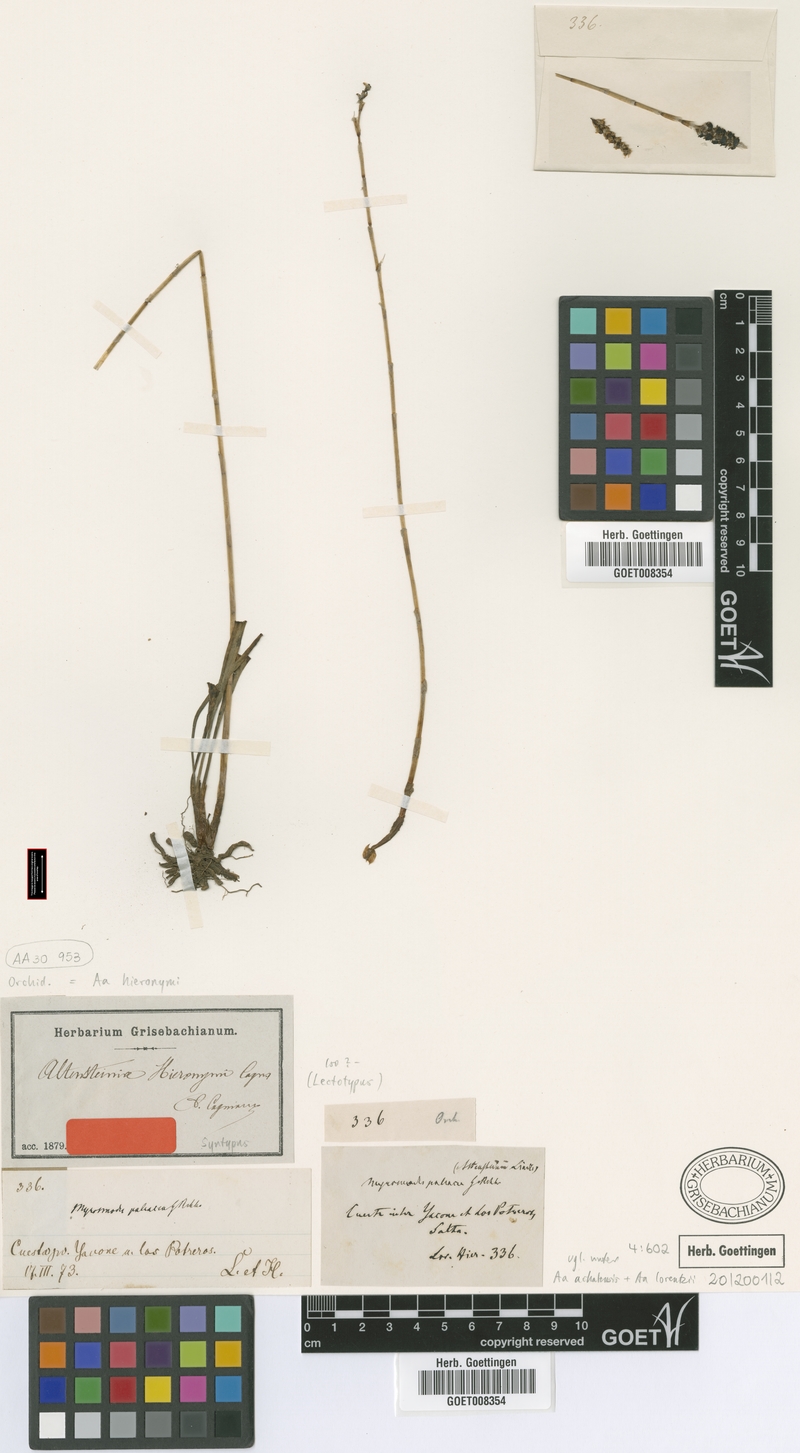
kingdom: Plantae
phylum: Tracheophyta
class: Liliopsida
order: Asparagales
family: Orchidaceae
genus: Aa
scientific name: Aa hieronymi
